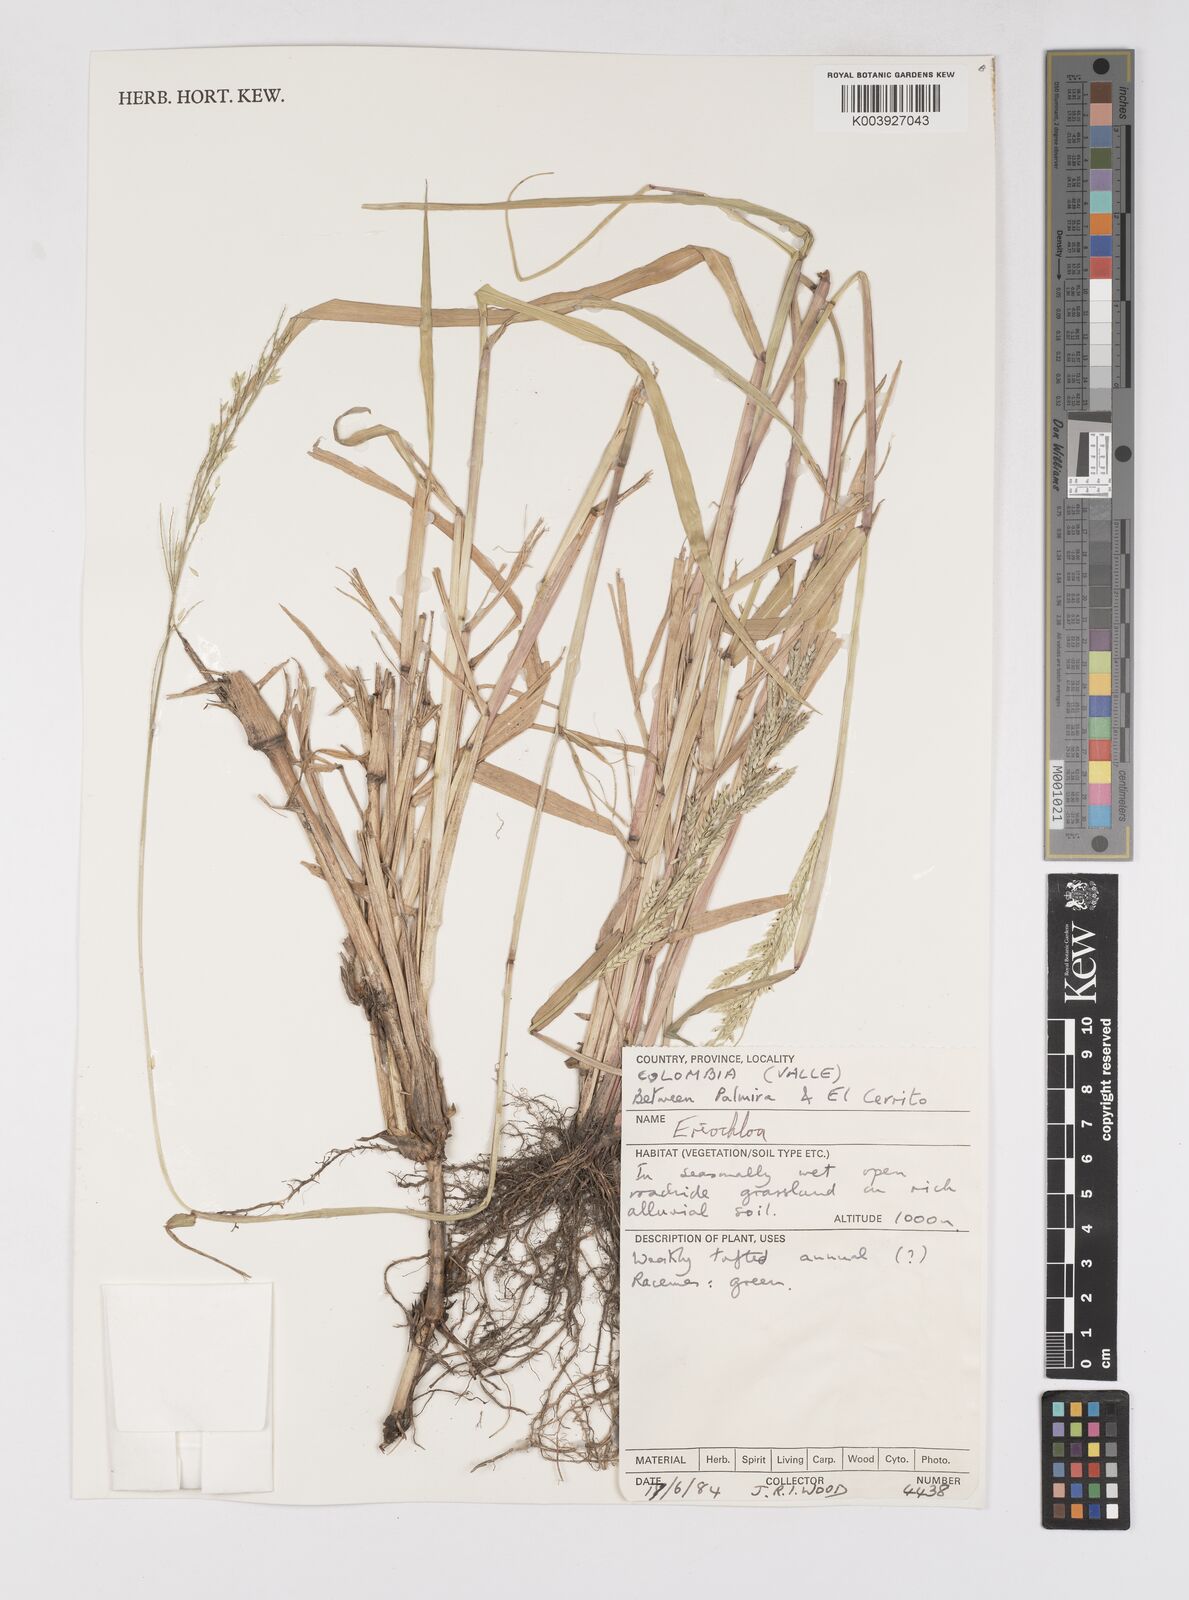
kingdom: Plantae
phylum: Tracheophyta
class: Liliopsida
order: Poales
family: Poaceae
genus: Eriochloa
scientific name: Eriochloa punctata
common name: Louisiana cupgrass
